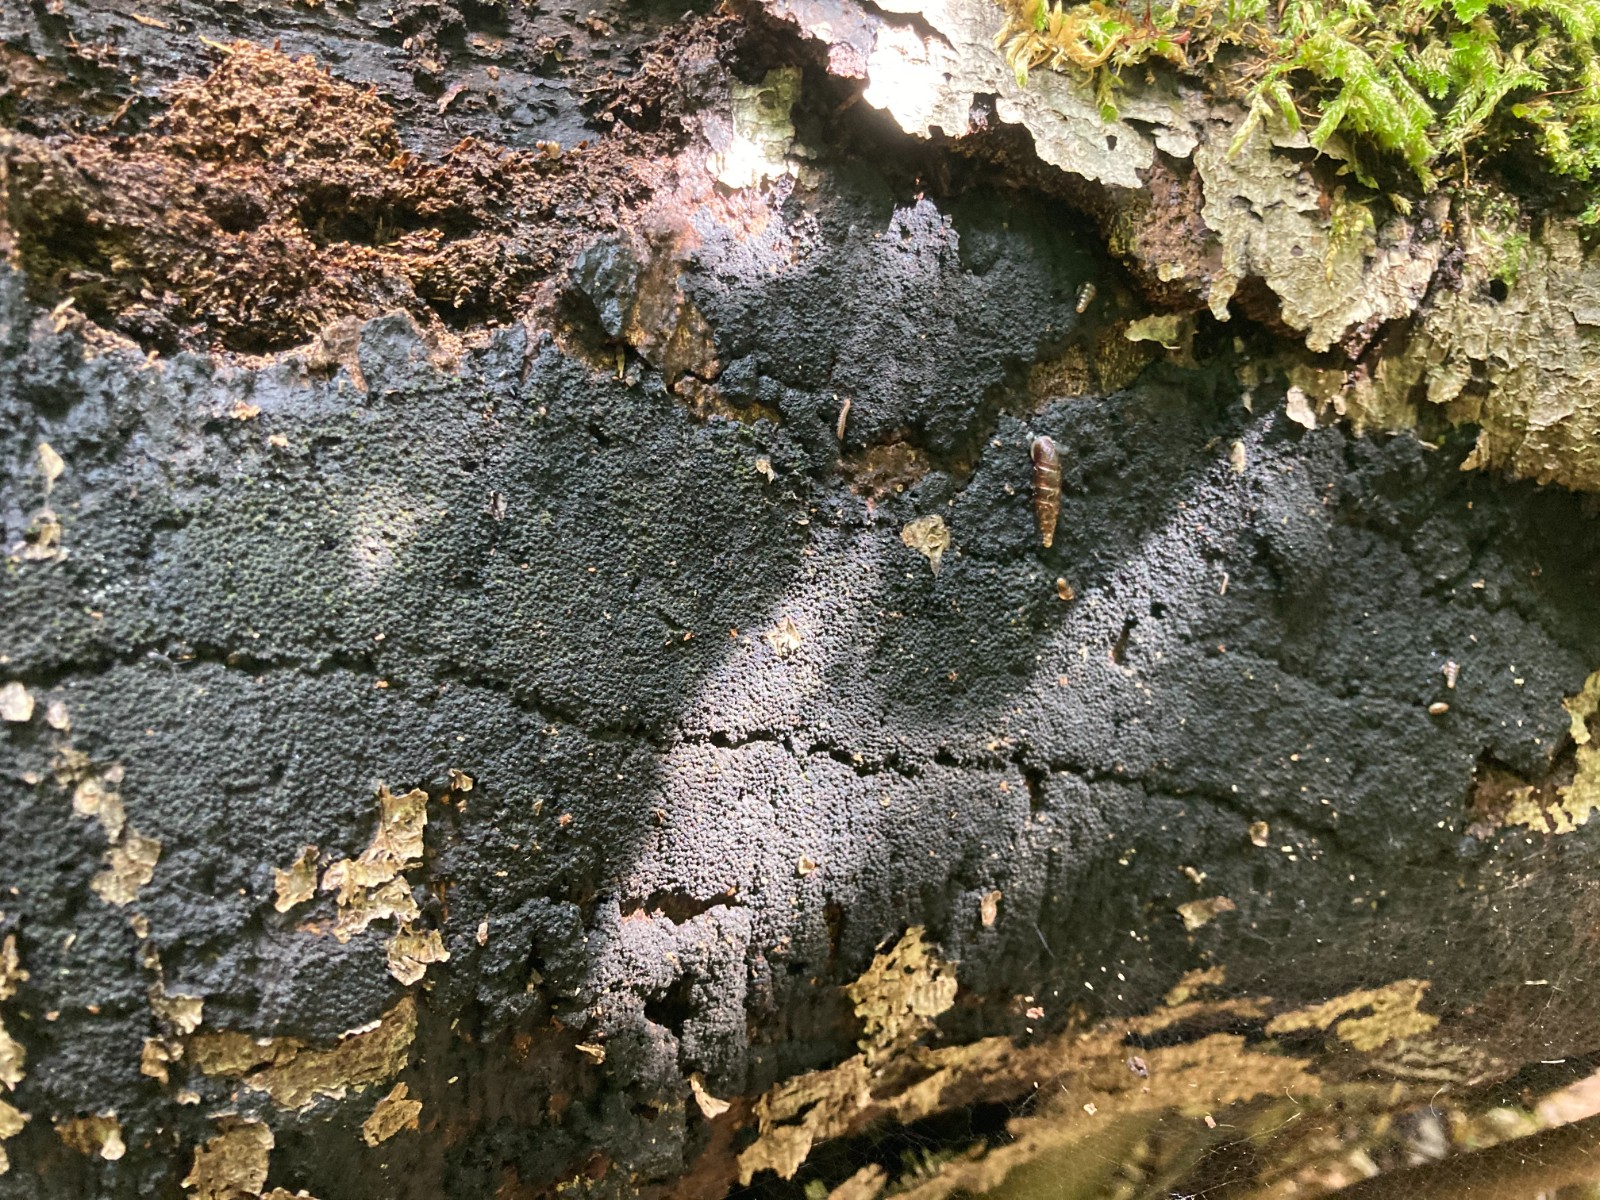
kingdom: Fungi
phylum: Ascomycota
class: Sordariomycetes
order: Xylariales
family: Diatrypaceae
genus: Eutypa
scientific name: Eutypa spinosa
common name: grov kulskorpe
